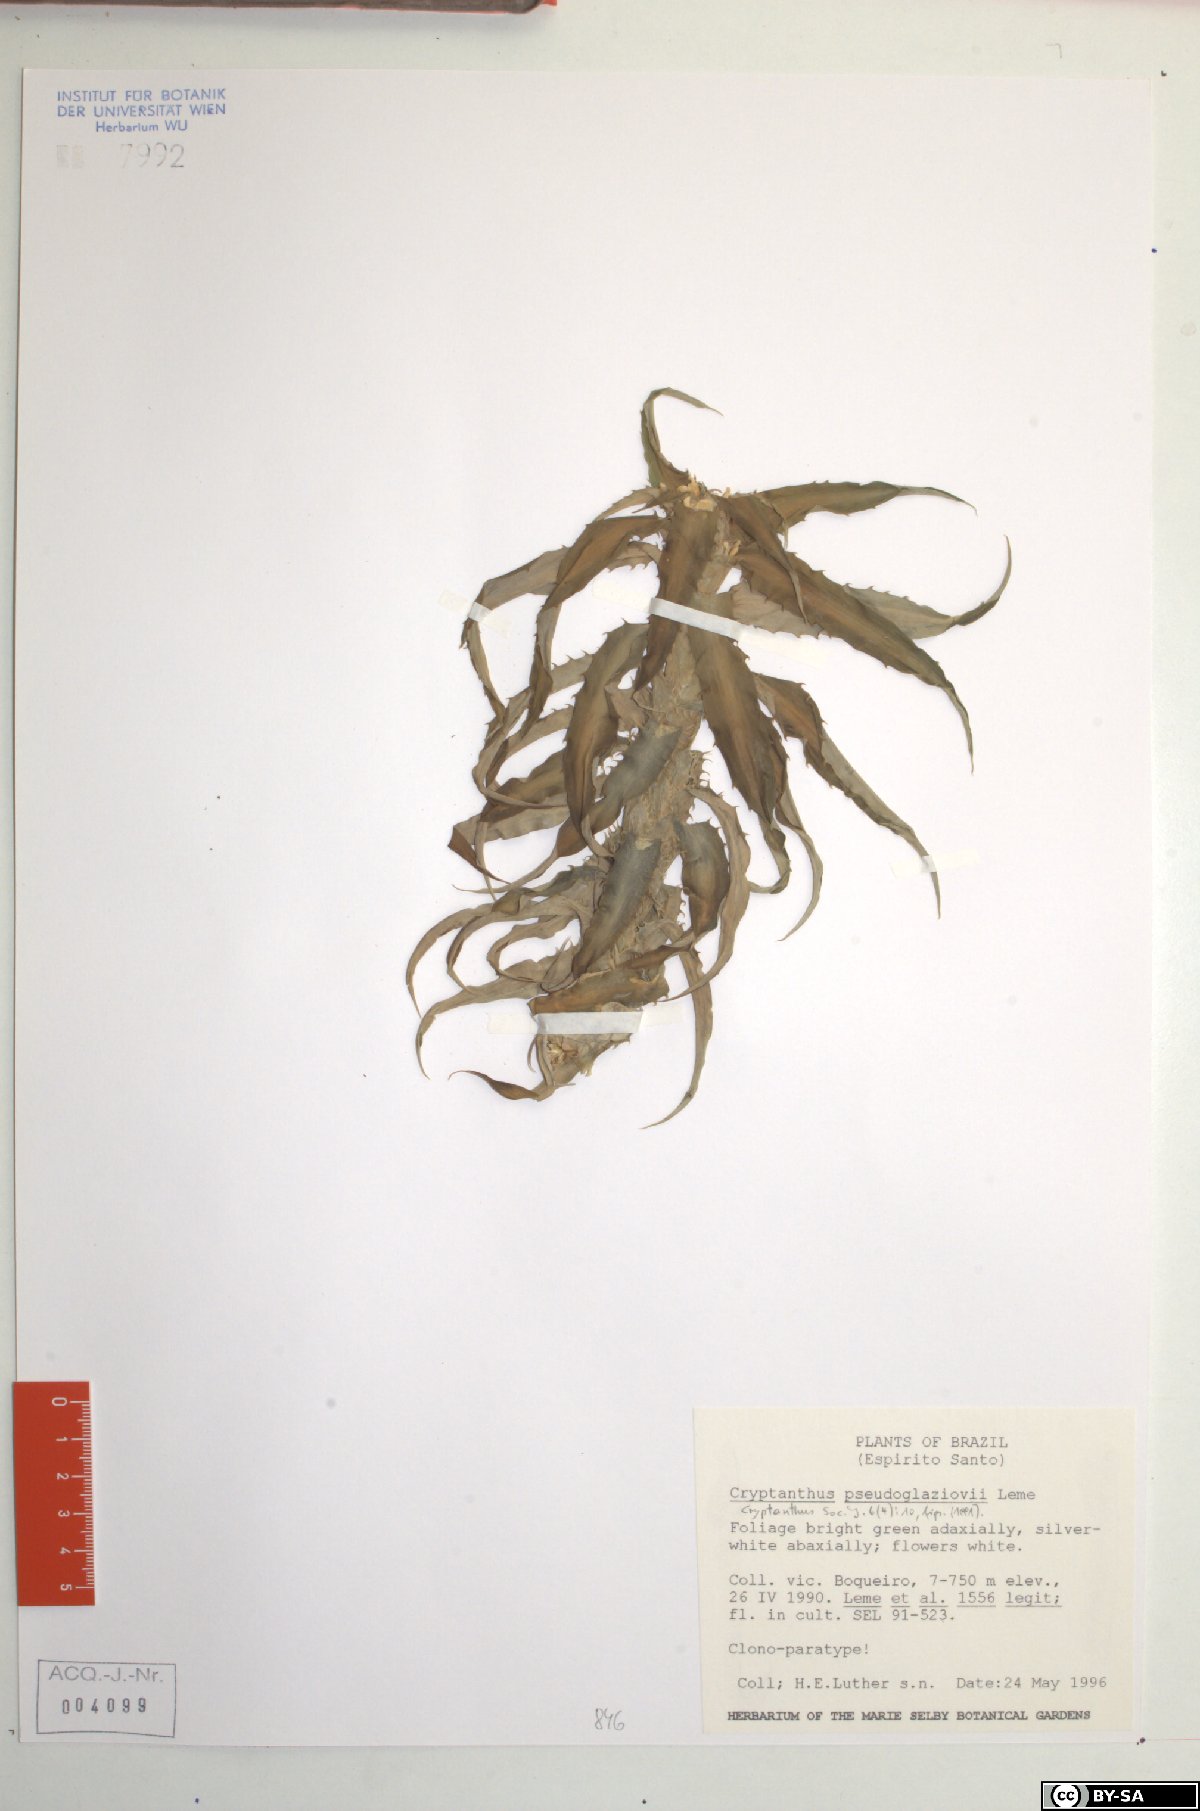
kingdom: Plantae
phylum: Tracheophyta
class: Liliopsida
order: Poales
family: Bromeliaceae
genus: Cryptanthus
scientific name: Cryptanthus pseudoglaziouvii
